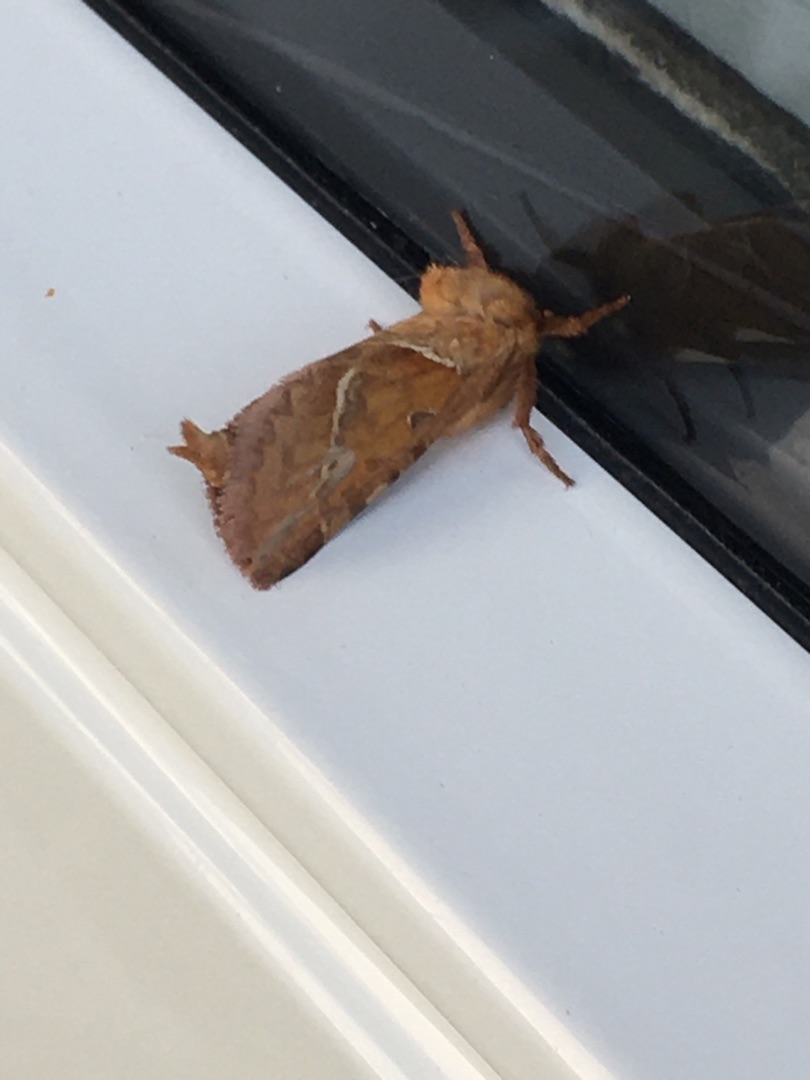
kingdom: Animalia
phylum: Arthropoda
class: Insecta
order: Lepidoptera
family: Hepialidae
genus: Triodia
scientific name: Triodia sylvina
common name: Skræpperodæder
